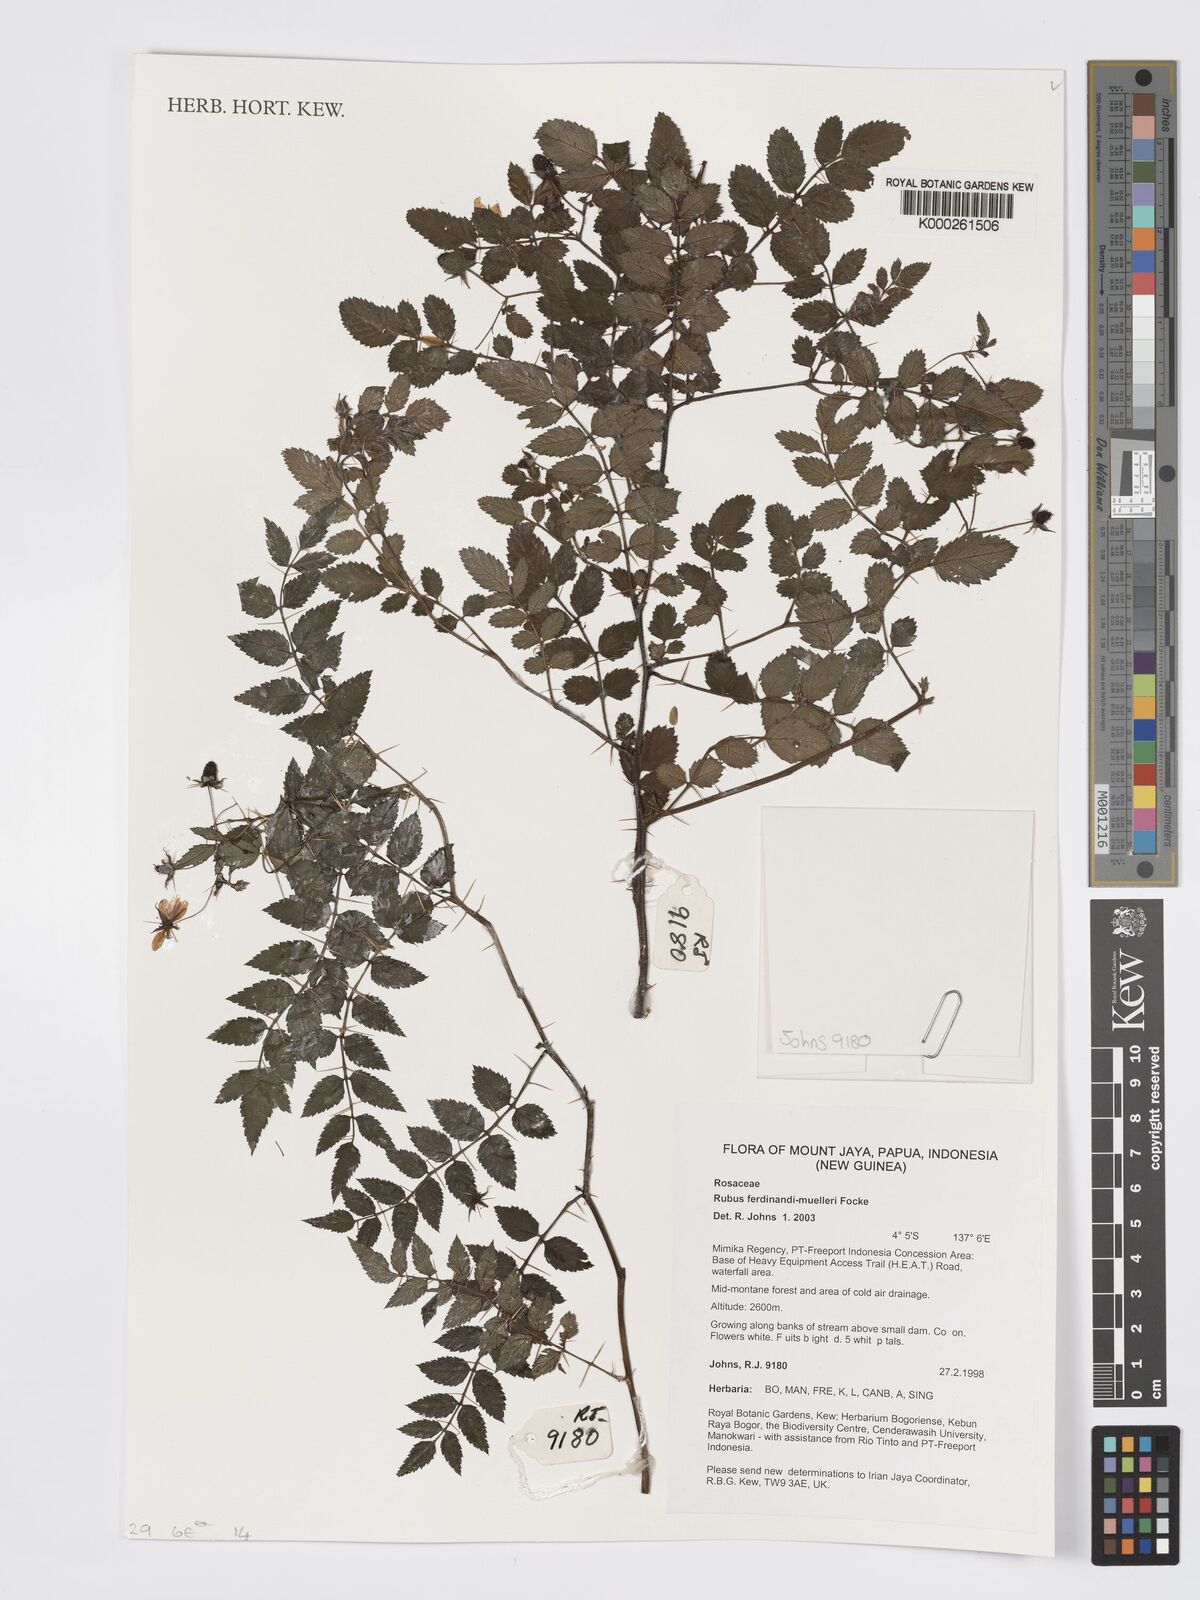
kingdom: Plantae
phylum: Tracheophyta
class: Magnoliopsida
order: Rosales
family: Rosaceae
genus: Rubus
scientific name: Rubus ferdinandimuelleri
